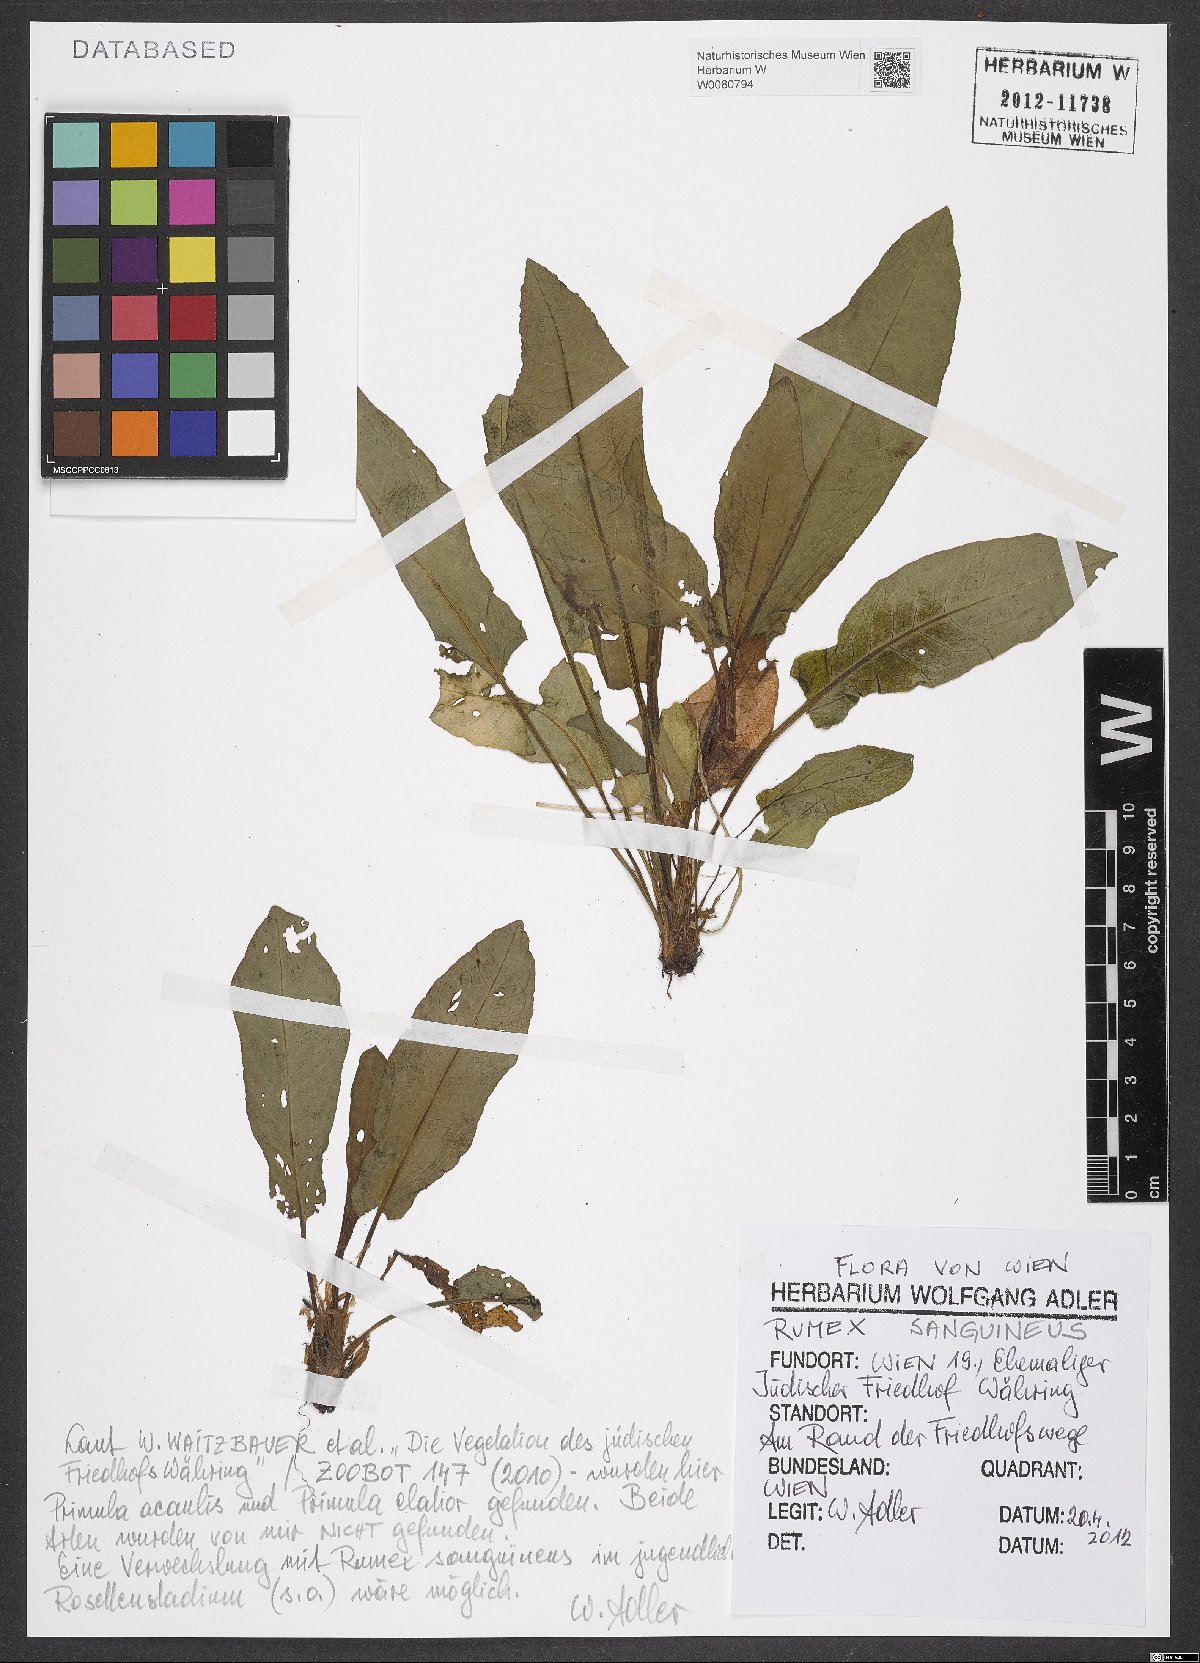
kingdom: Plantae
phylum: Tracheophyta
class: Magnoliopsida
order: Caryophyllales
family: Polygonaceae
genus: Rumex
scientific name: Rumex sanguineus
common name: Wood dock
